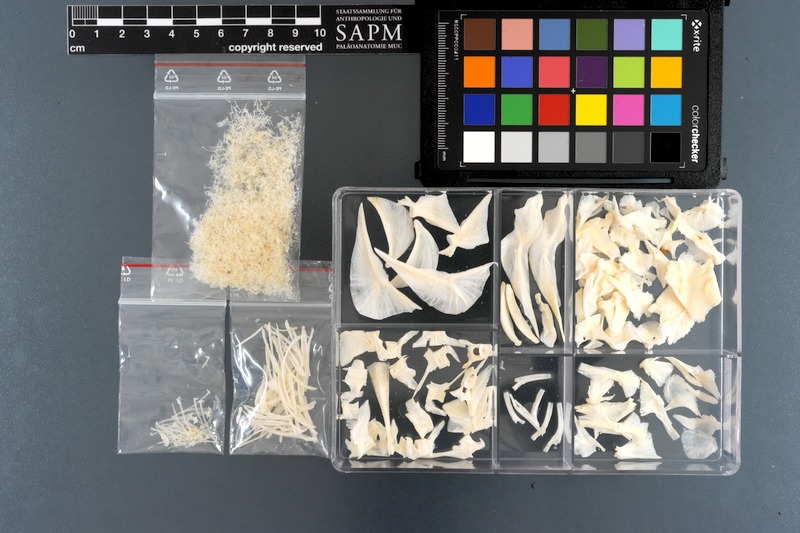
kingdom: Animalia
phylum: Chordata
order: Tetraodontiformes
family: Tetraodontidae
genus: Arothron
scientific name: Arothron hispidus
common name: Stripebelly puffer
